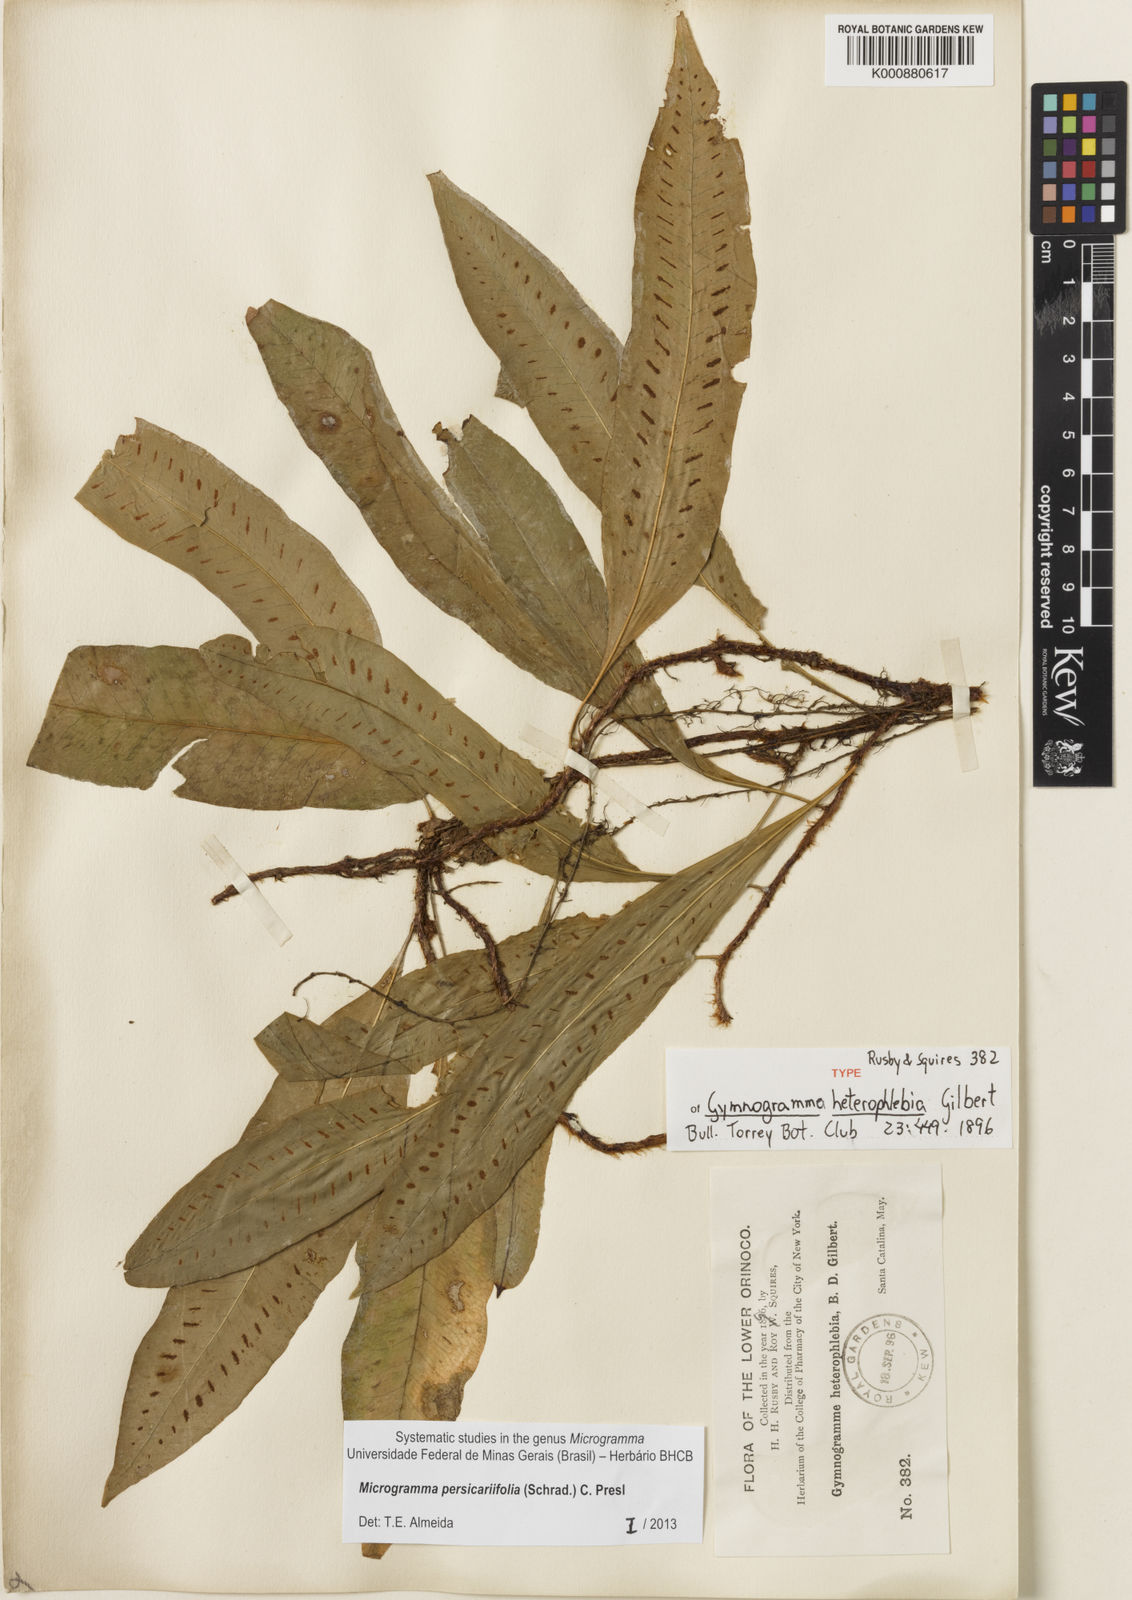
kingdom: Plantae
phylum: Tracheophyta
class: Polypodiopsida
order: Polypodiales
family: Polypodiaceae
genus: Microgramma
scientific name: Microgramma persicariifolia
